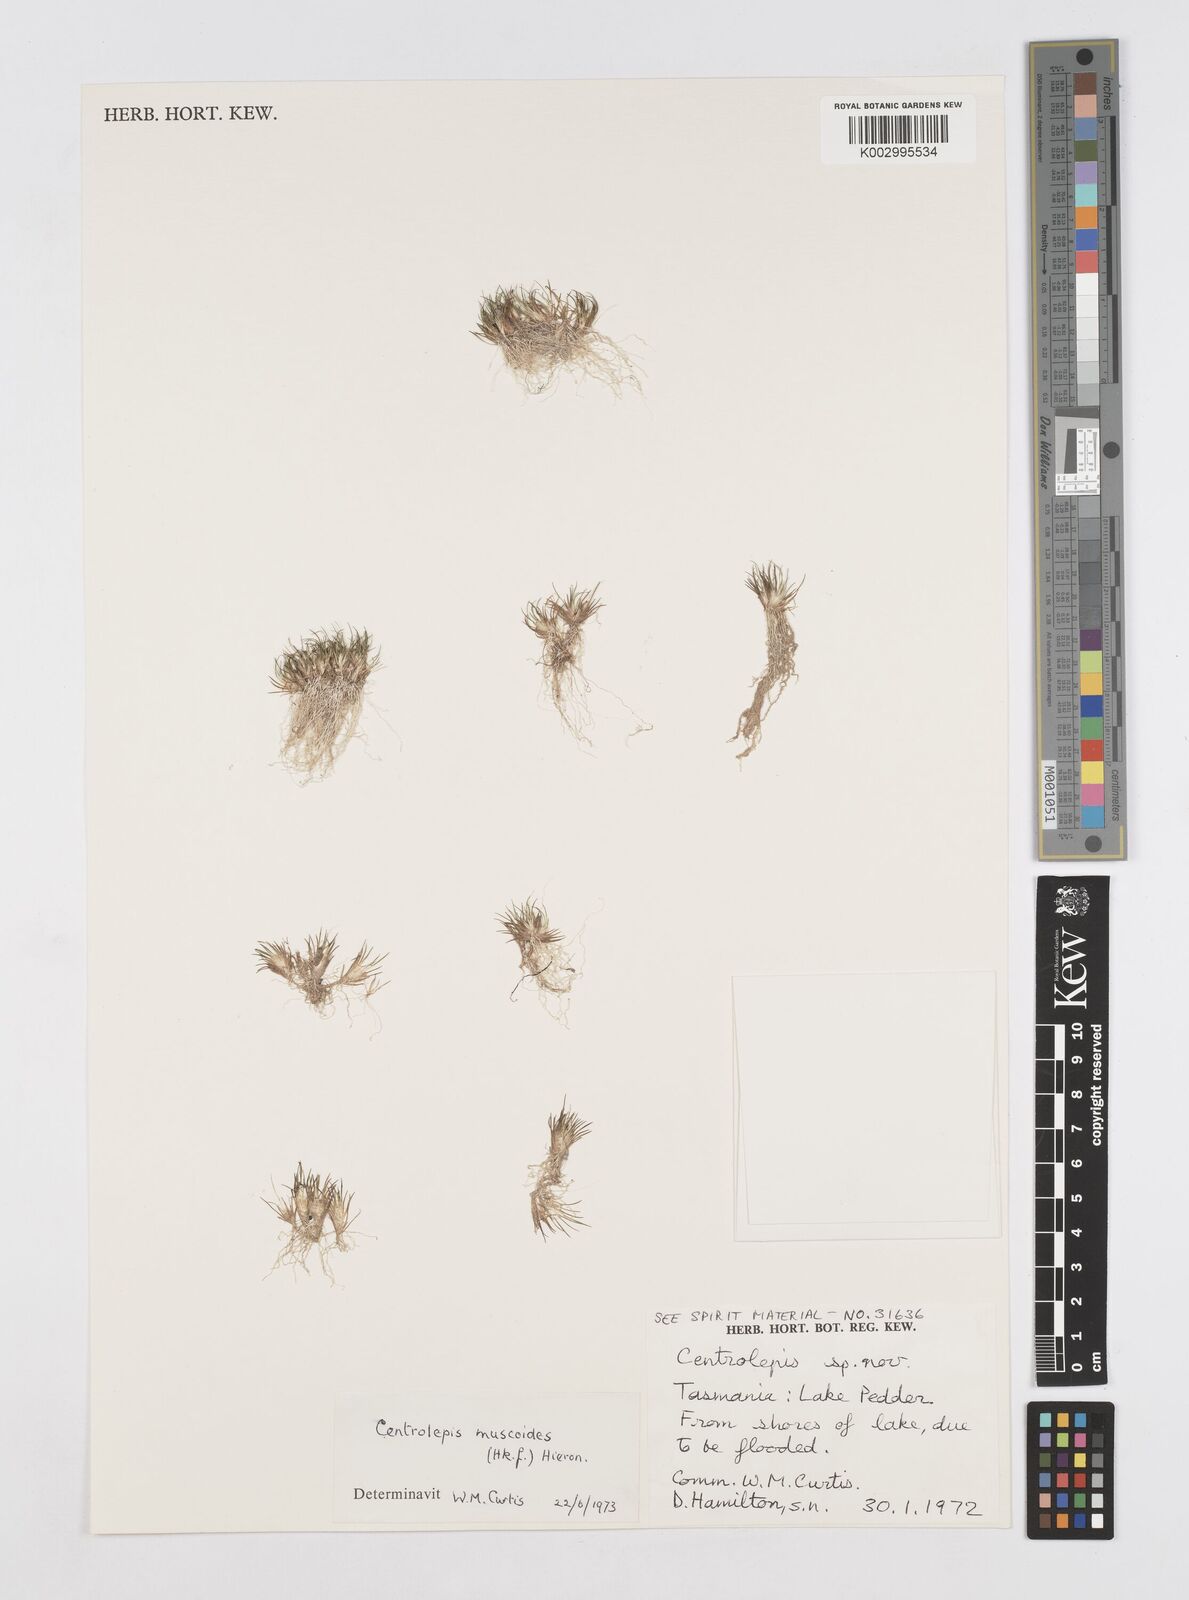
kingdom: Plantae
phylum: Tracheophyta
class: Liliopsida
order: Poales
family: Restionaceae
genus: Centrolepis
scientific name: Centrolepis muscoides
